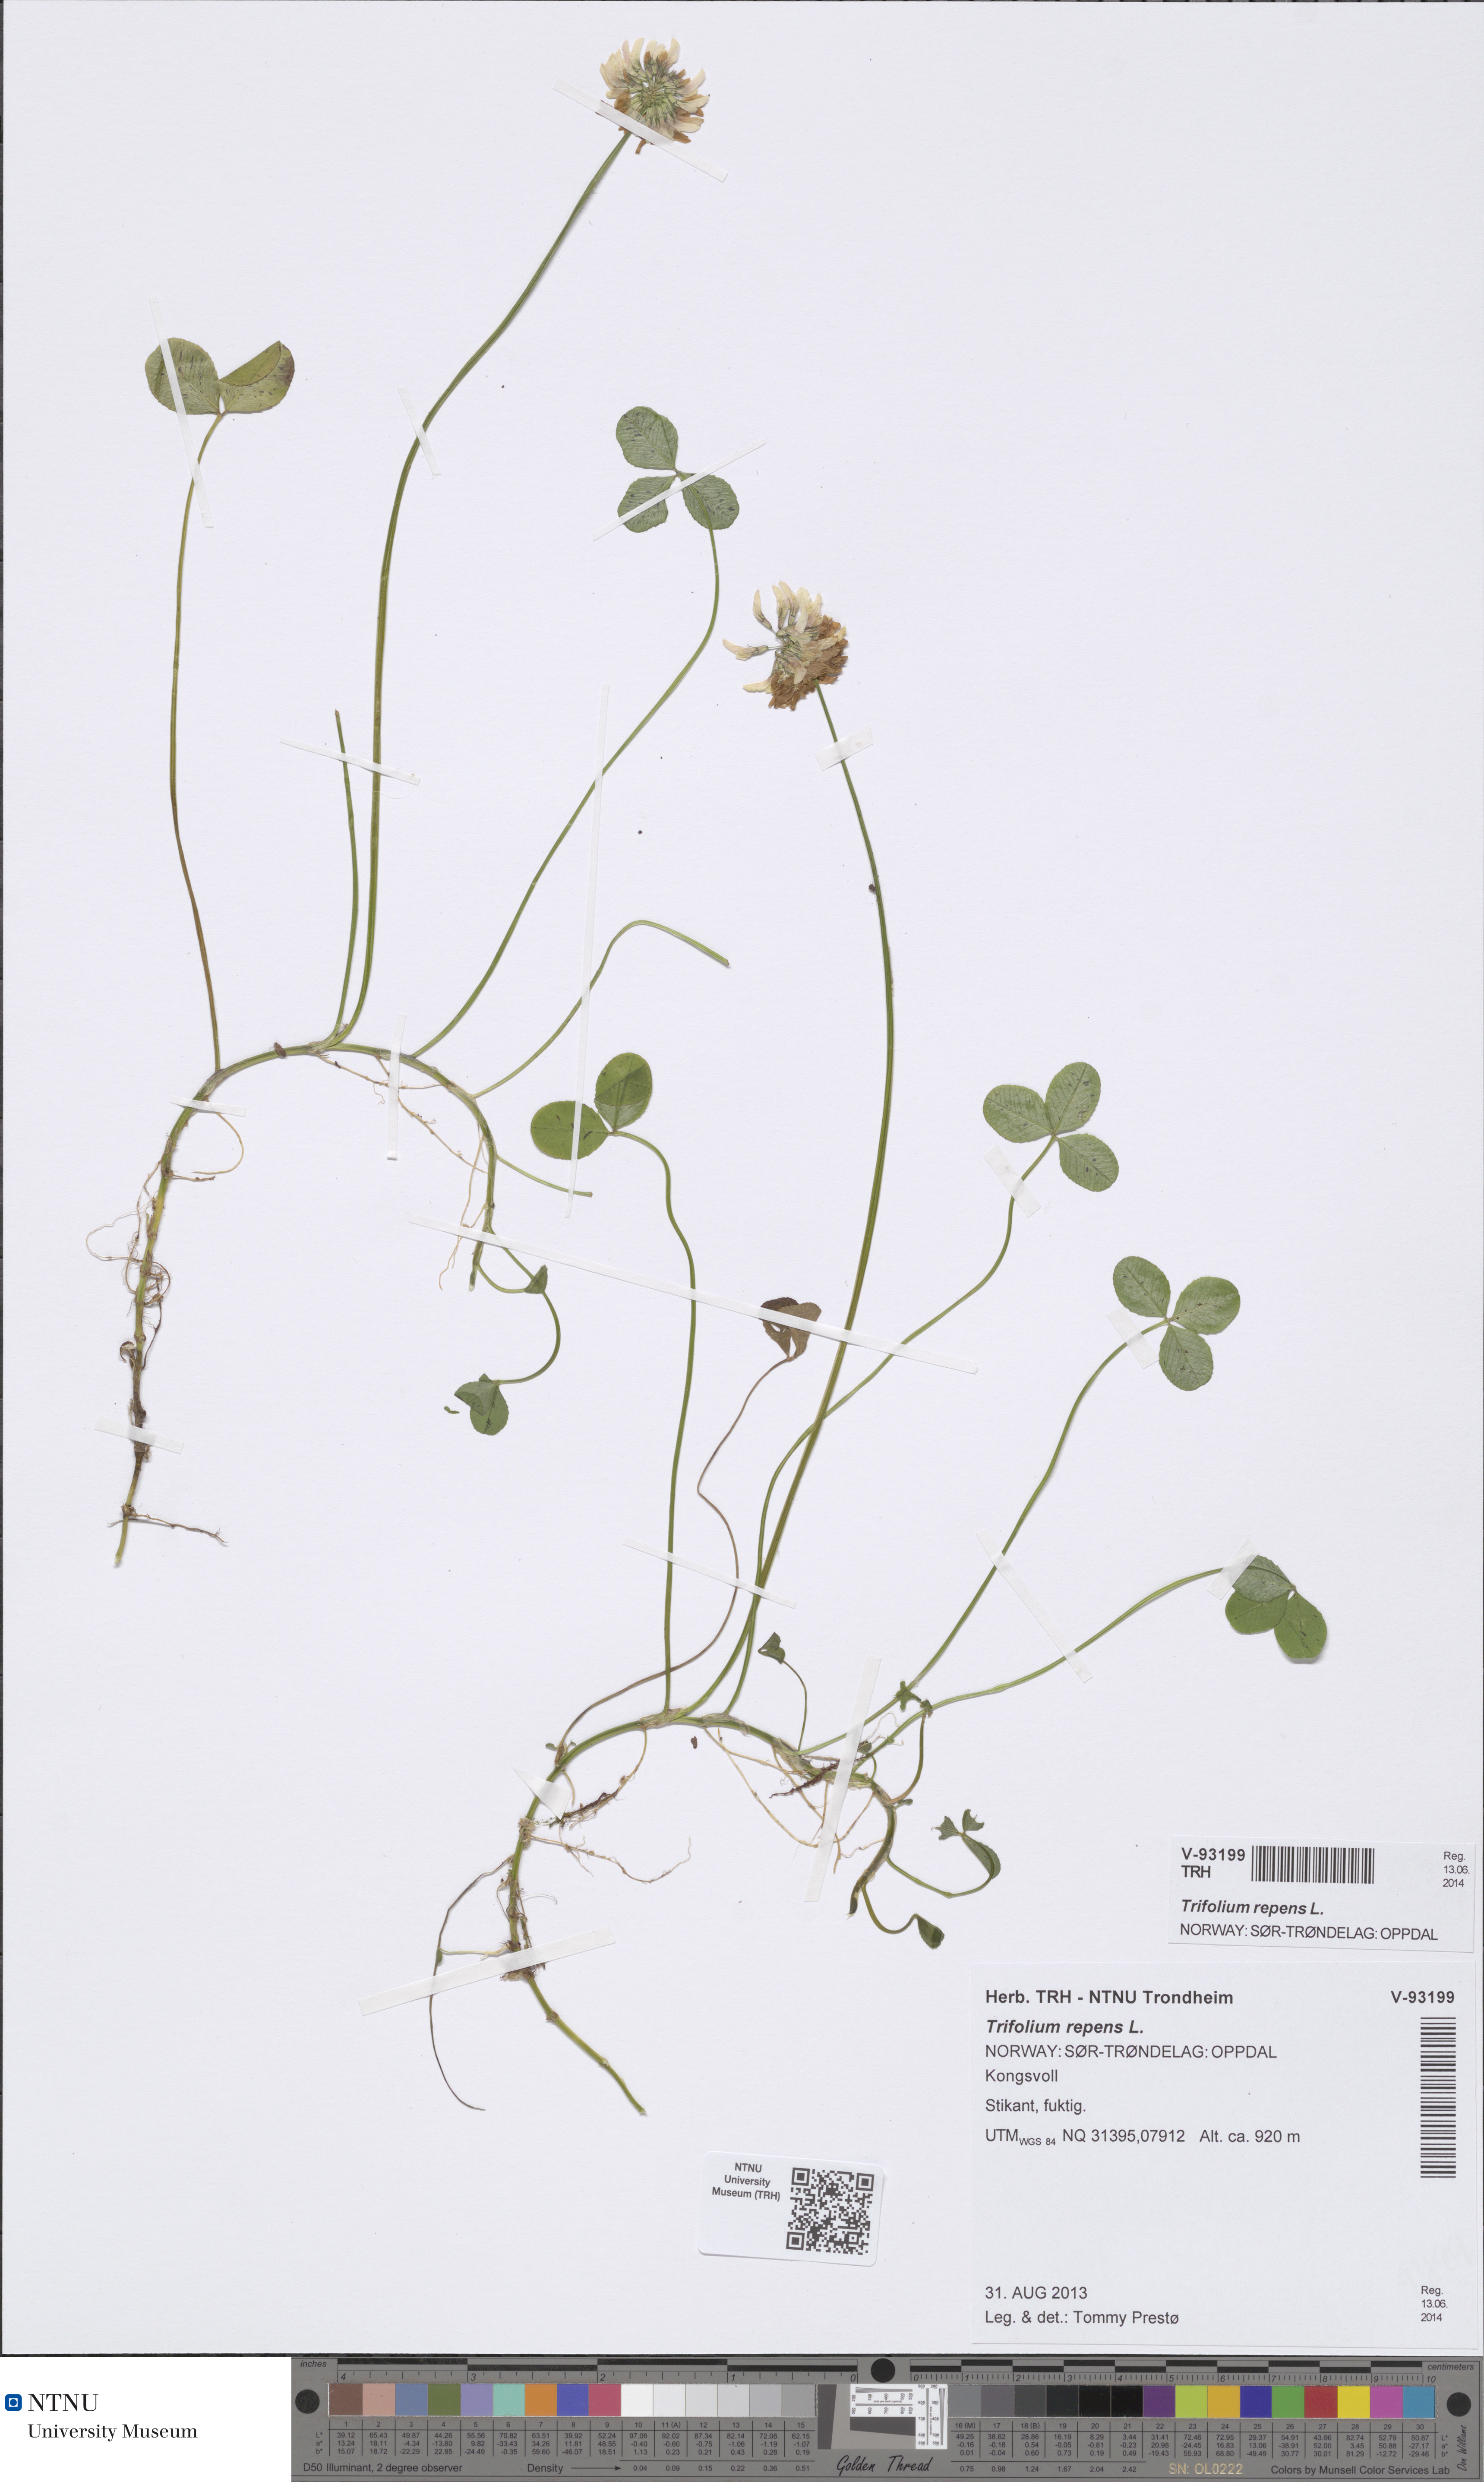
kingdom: Plantae
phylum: Tracheophyta
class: Magnoliopsida
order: Fabales
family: Fabaceae
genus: Trifolium
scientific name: Trifolium repens
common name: White clover
